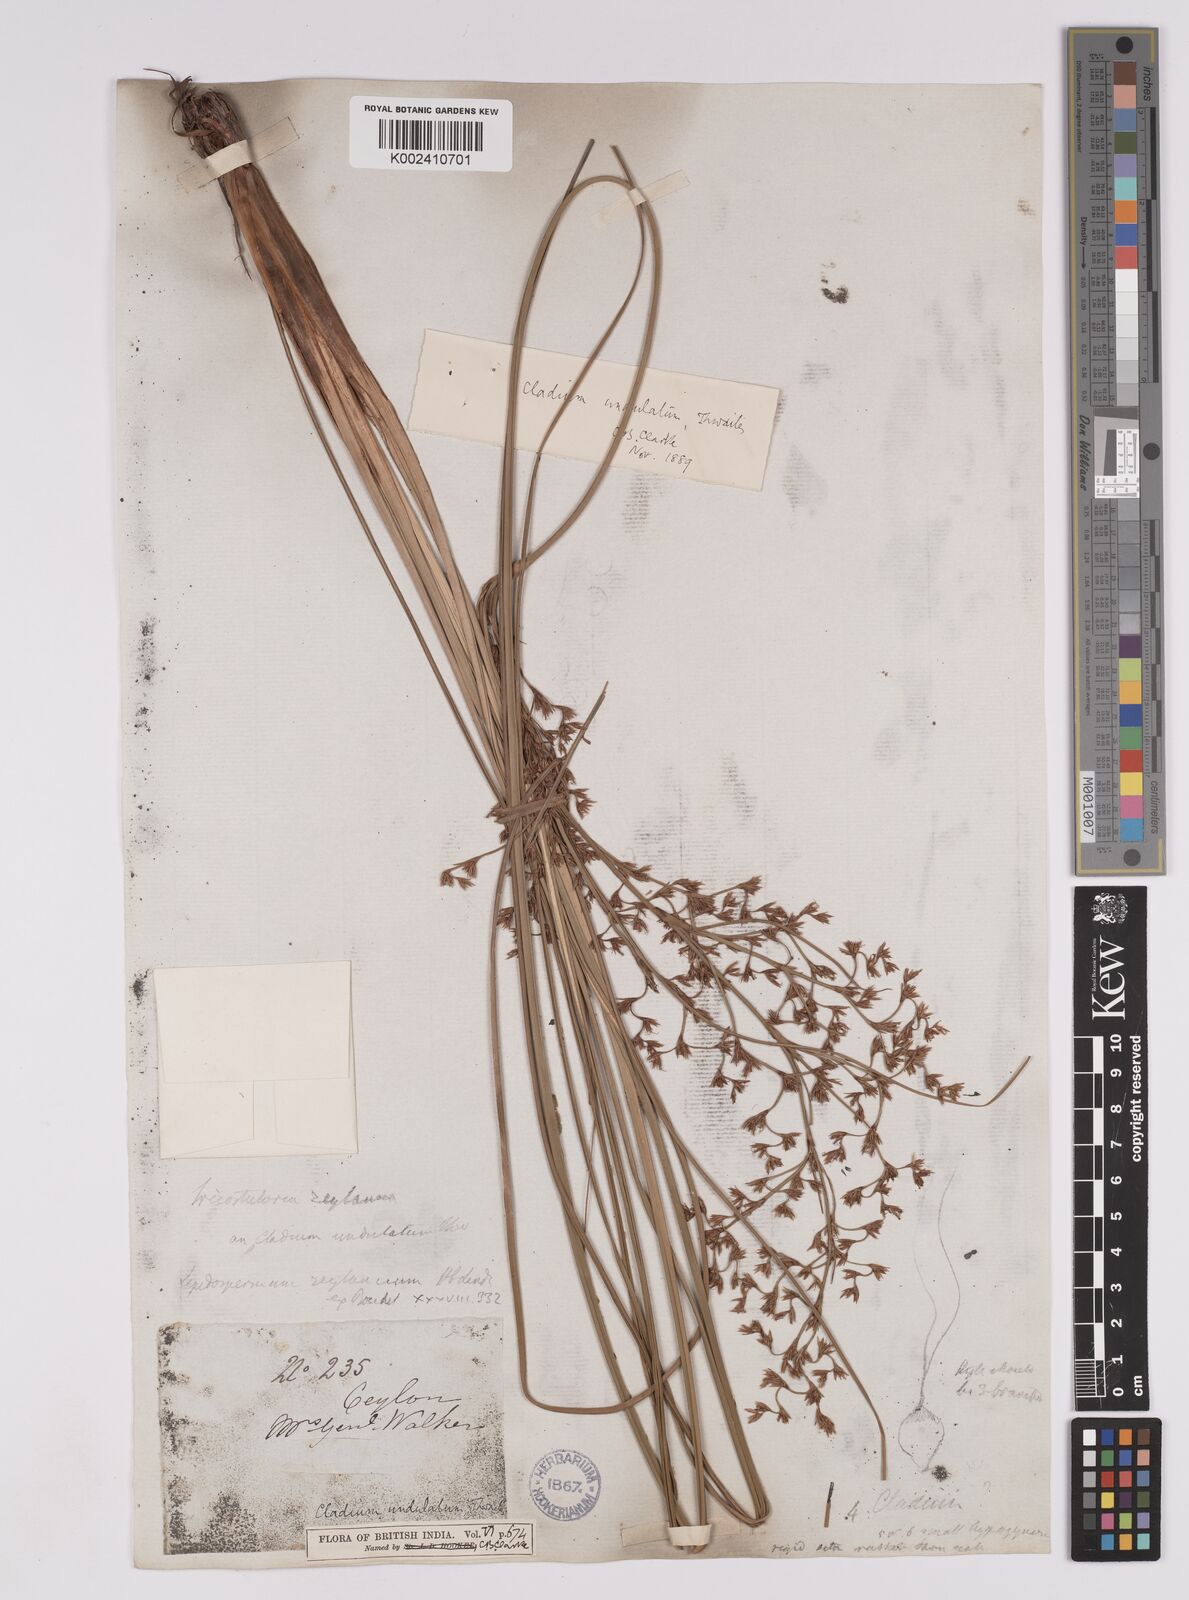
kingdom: Plantae
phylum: Tracheophyta
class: Liliopsida
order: Poales
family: Cyperaceae
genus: Anthelepis
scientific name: Anthelepis undulata
